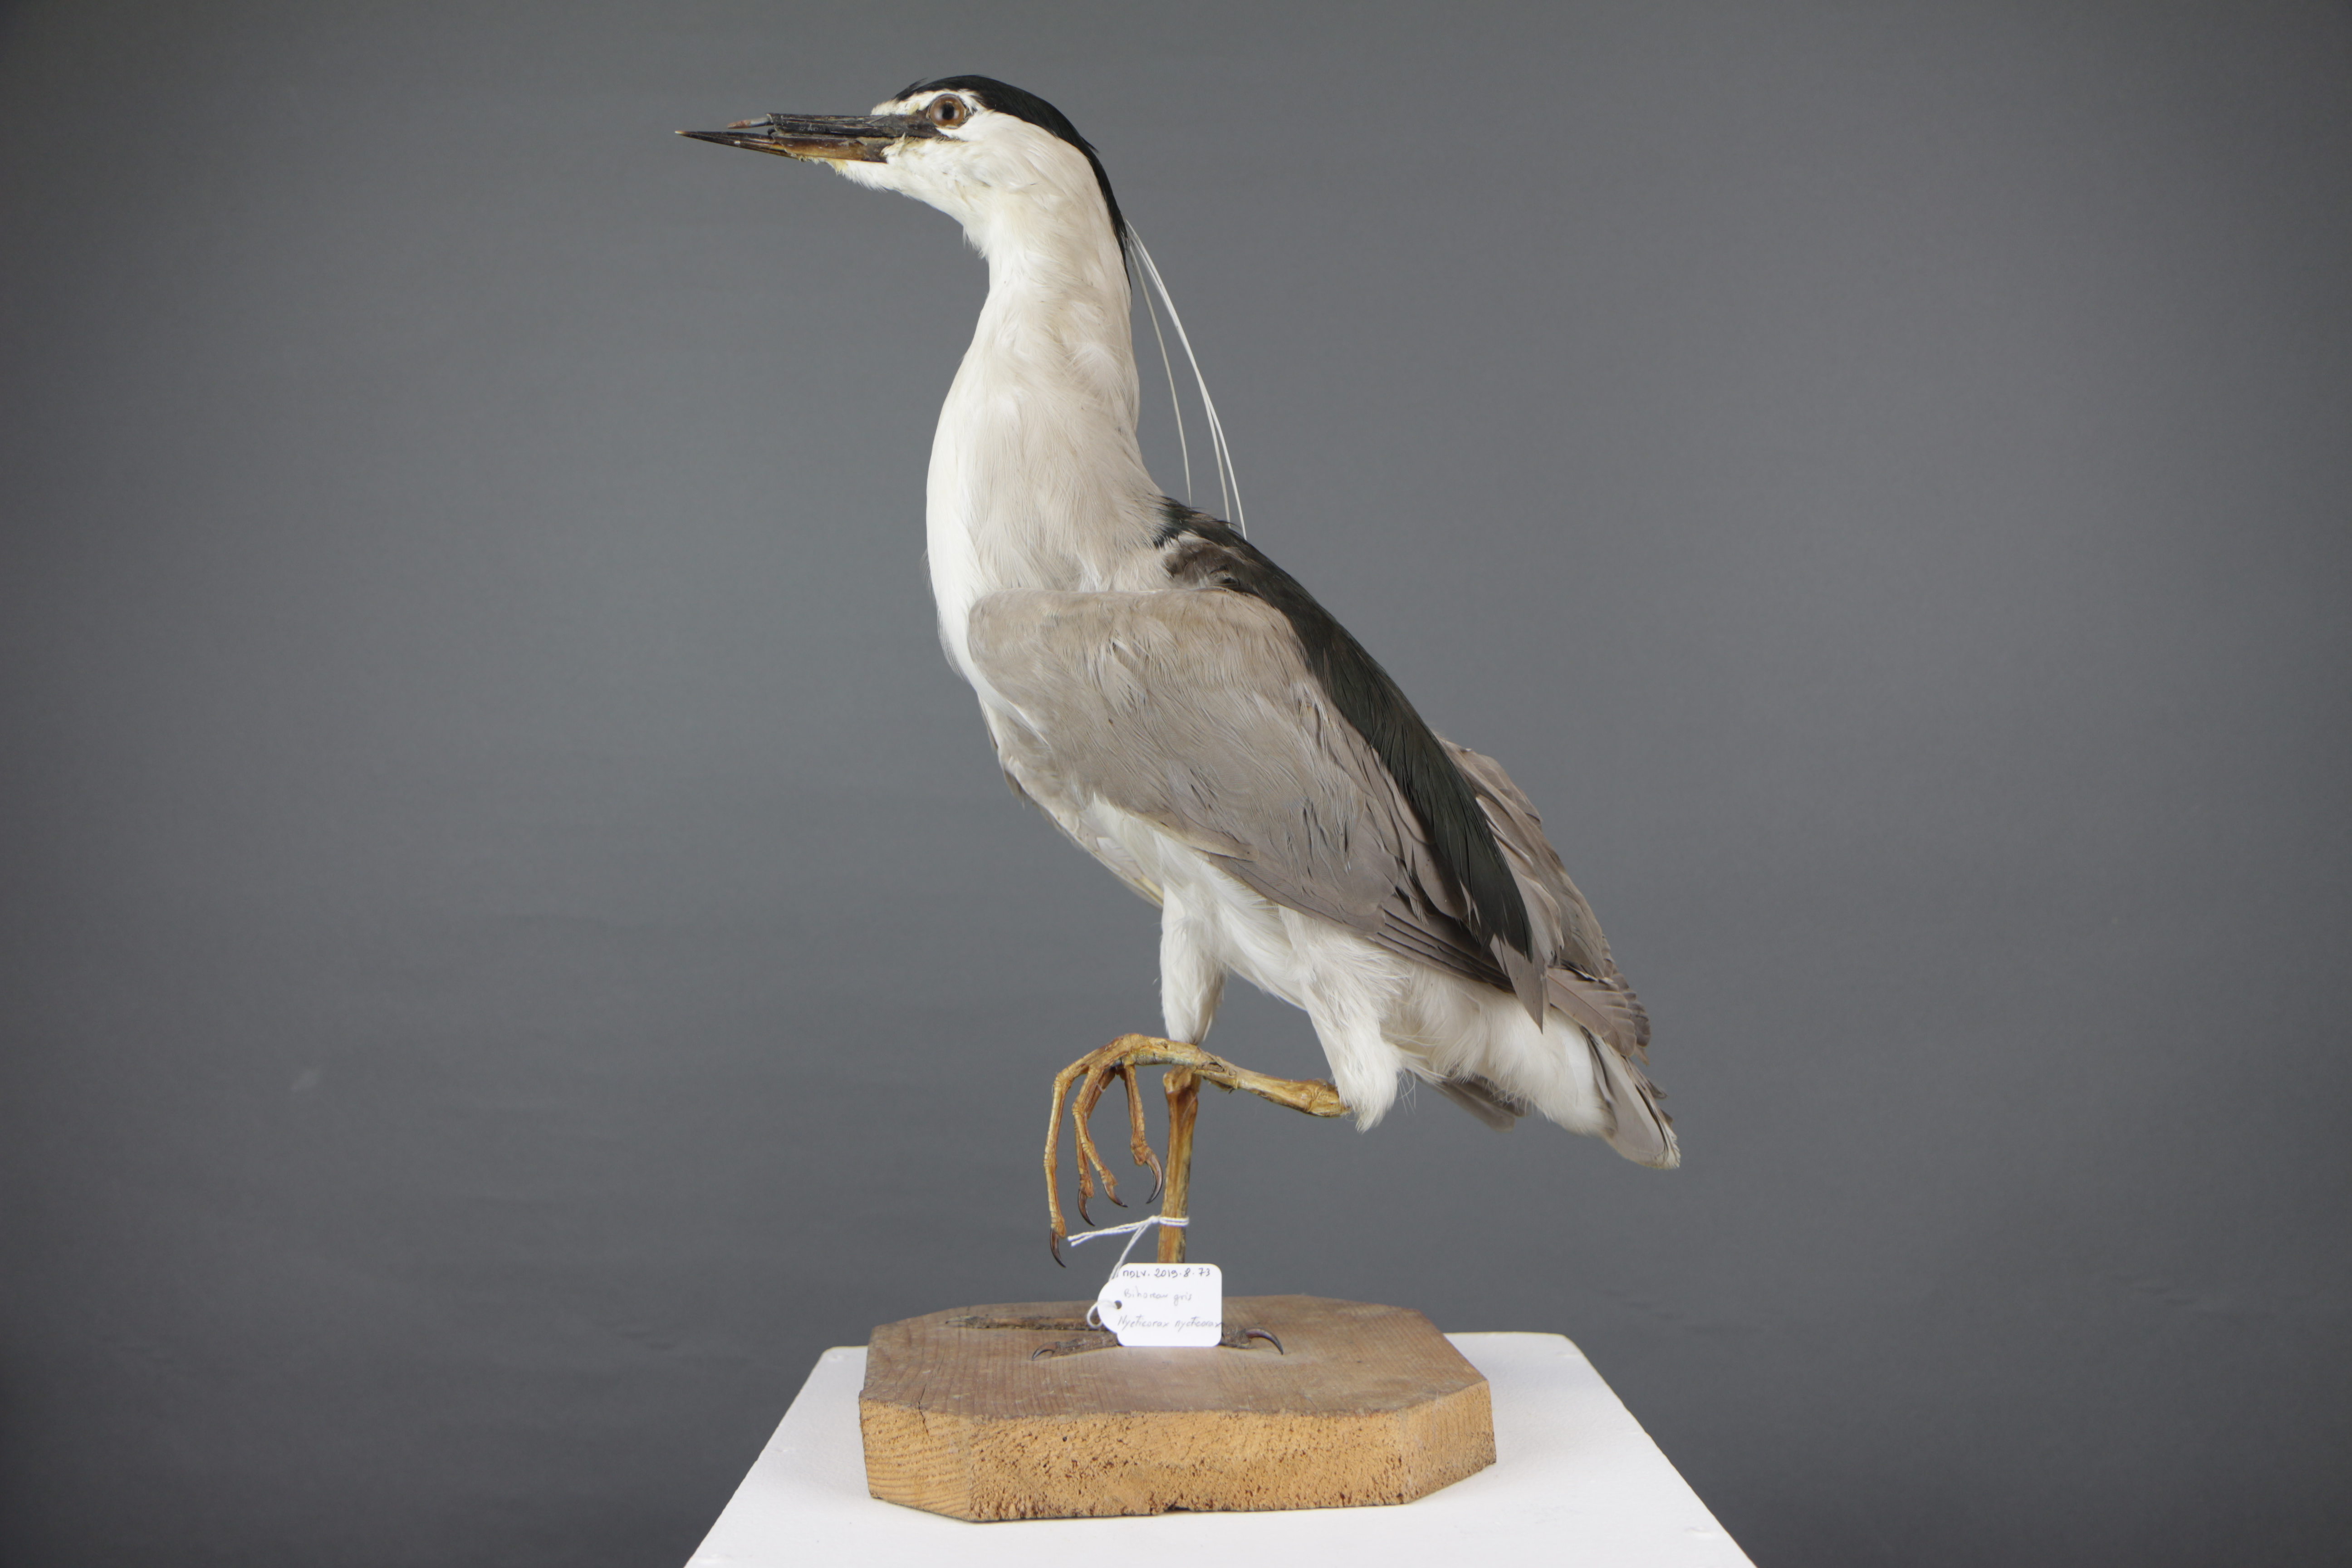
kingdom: Animalia
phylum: Chordata
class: Aves
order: Pelecaniformes
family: Ardeidae
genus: Nycticorax
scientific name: Nycticorax nycticorax
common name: Black-crowned night heron
